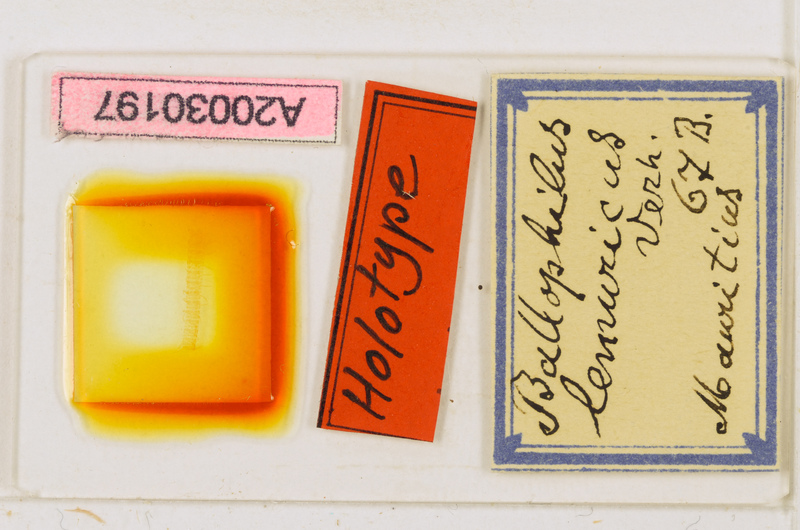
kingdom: Animalia
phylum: Arthropoda
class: Chilopoda
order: Geophilomorpha
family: Ballophilidae
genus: Ballophilus
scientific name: Ballophilus
